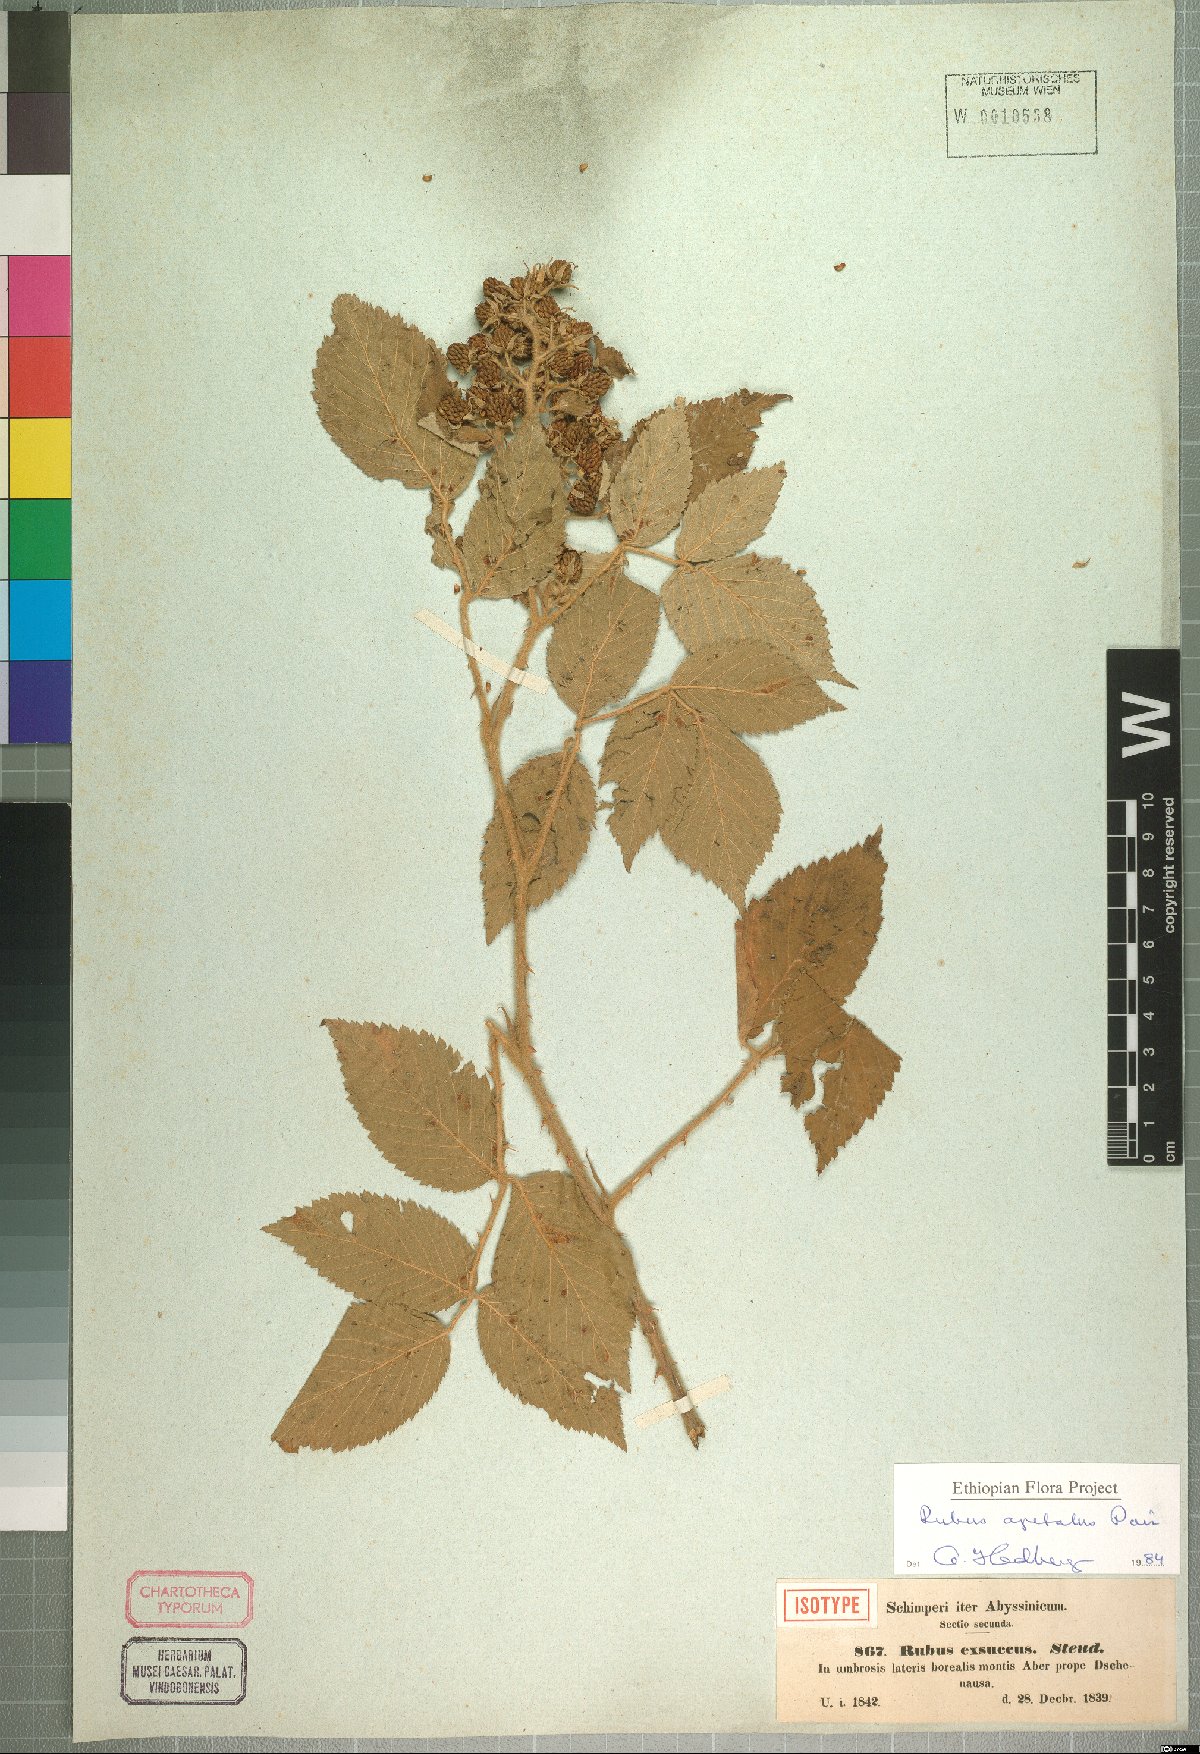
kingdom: Plantae
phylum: Tracheophyta
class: Magnoliopsida
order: Rosales
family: Rosaceae
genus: Rubus
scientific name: Rubus apetalus
